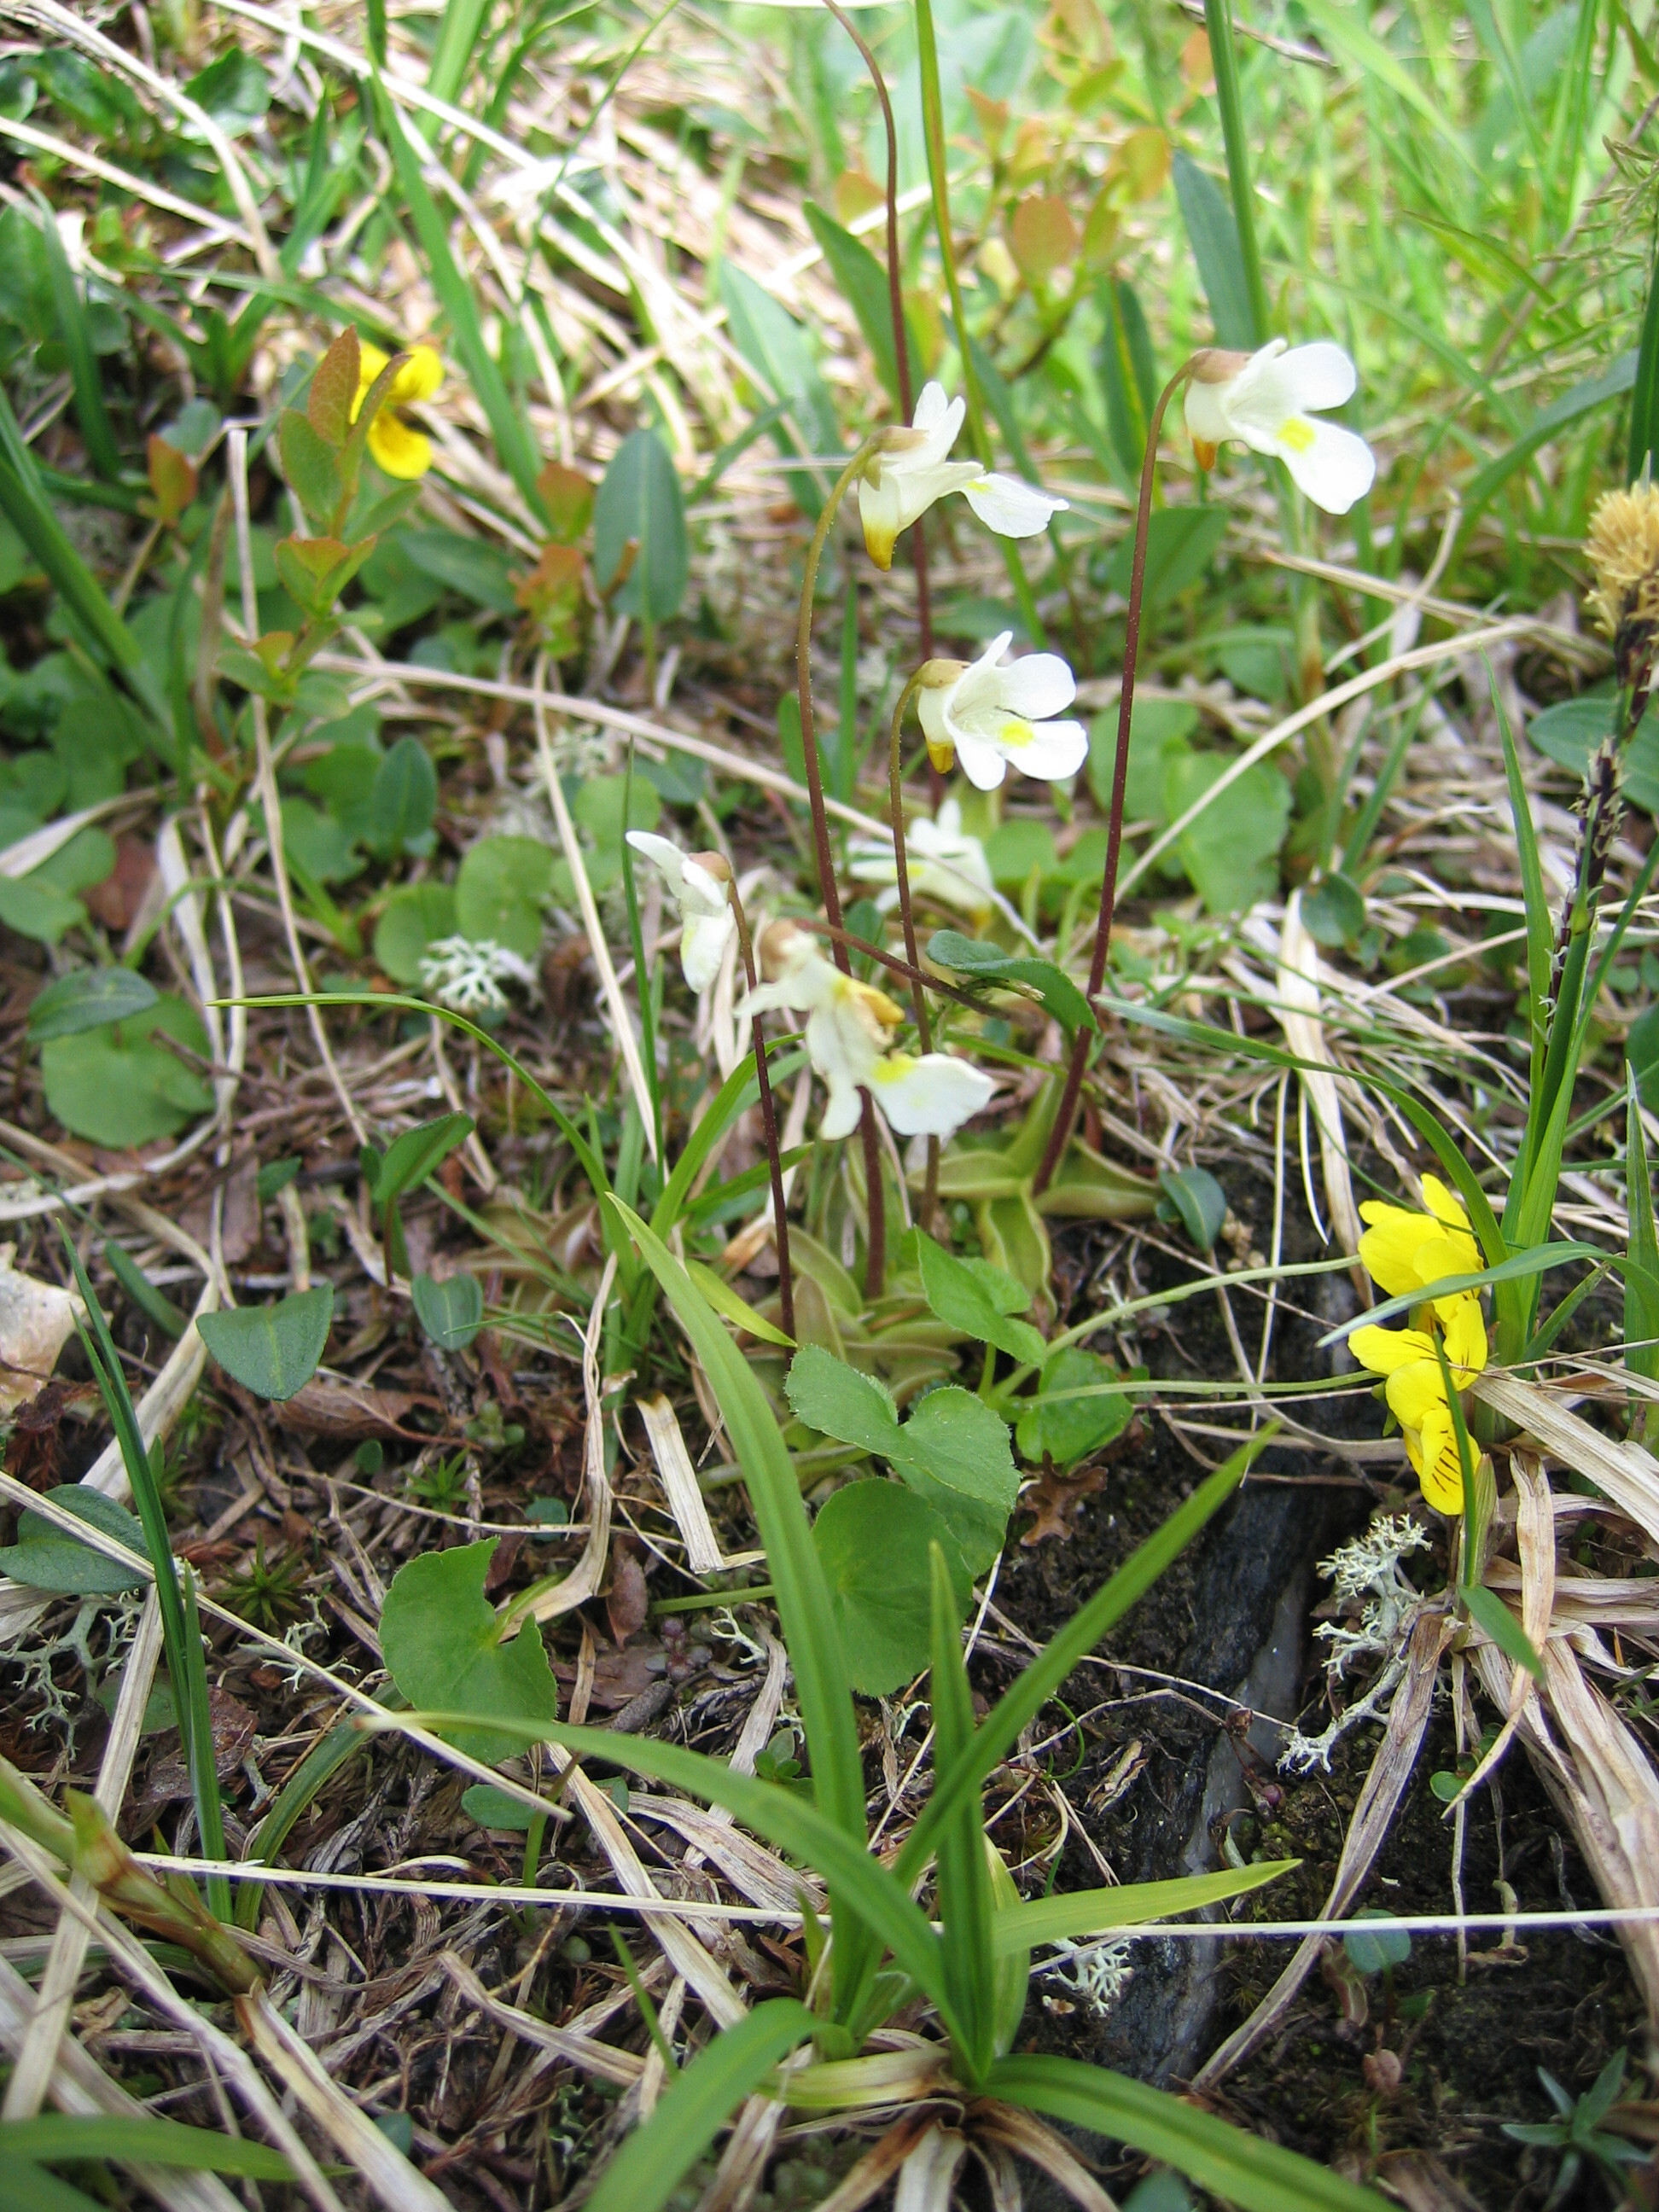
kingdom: Plantae
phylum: Tracheophyta
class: Magnoliopsida
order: Lamiales
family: Lentibulariaceae
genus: Pinguicula
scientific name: Pinguicula alpina
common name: Alpine butterwort
